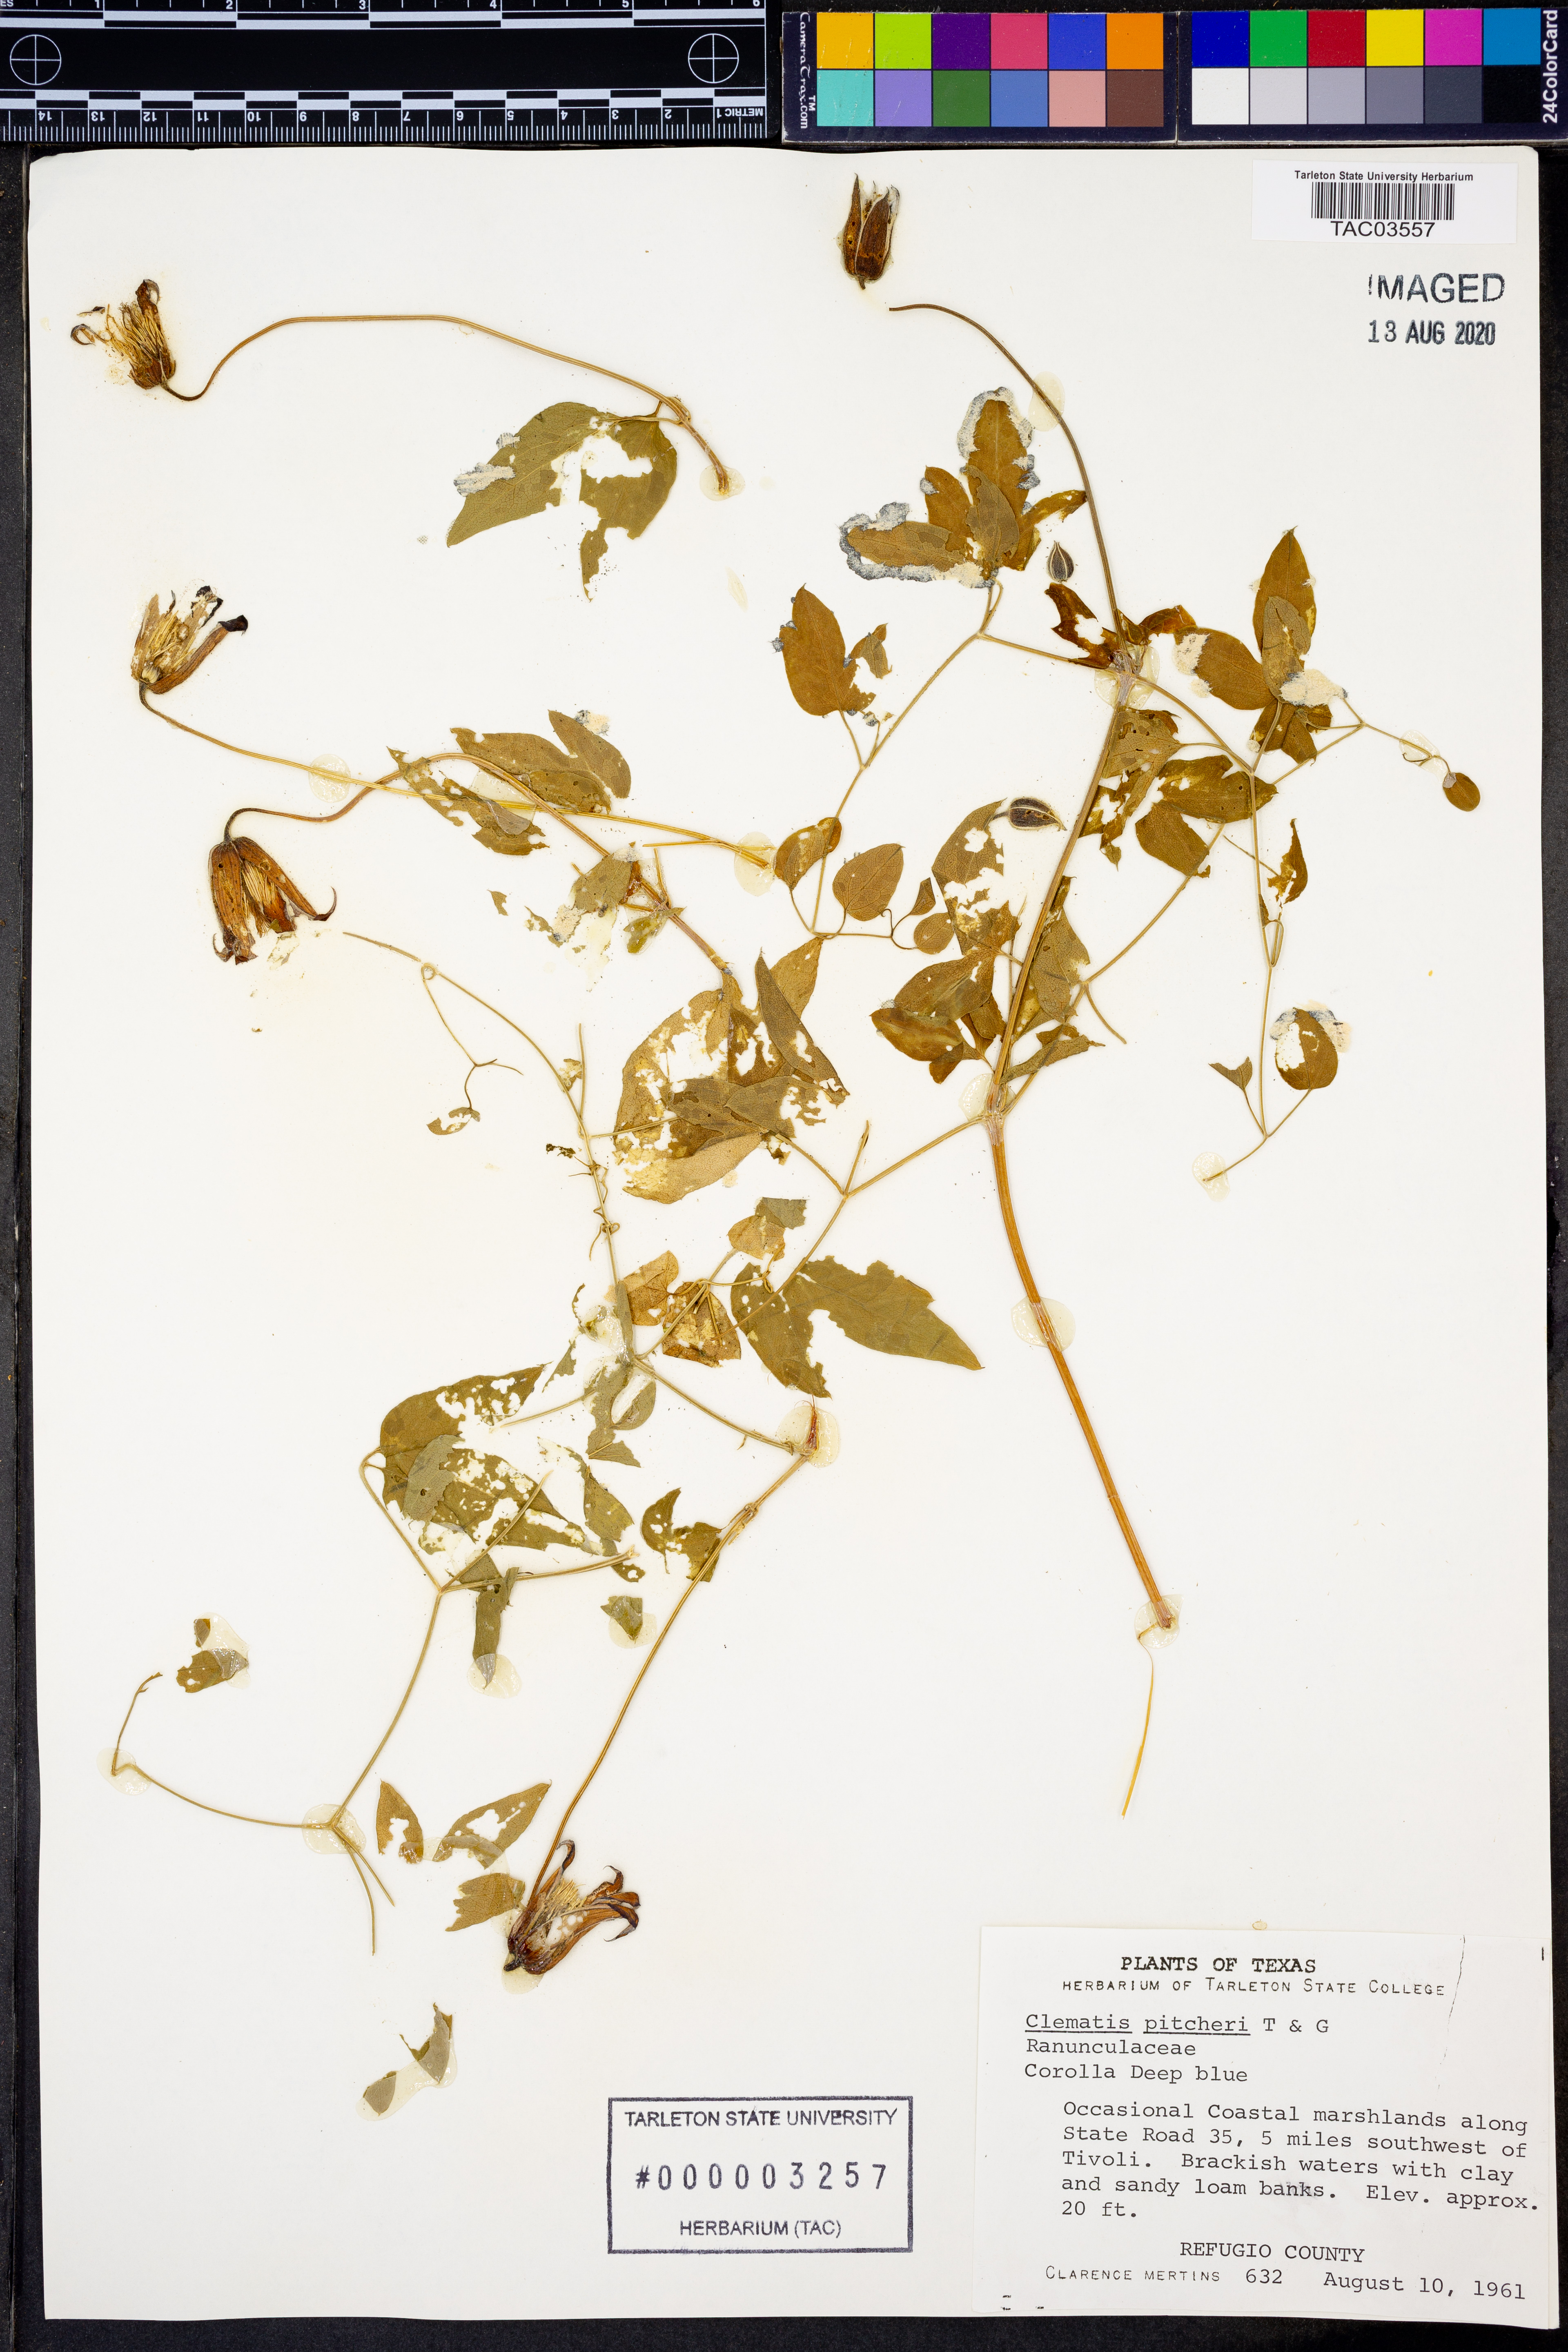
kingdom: Plantae
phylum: Tracheophyta
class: Magnoliopsida
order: Ranunculales
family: Ranunculaceae
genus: Clematis
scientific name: Clematis pitcheri
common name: Bellflower clematis
